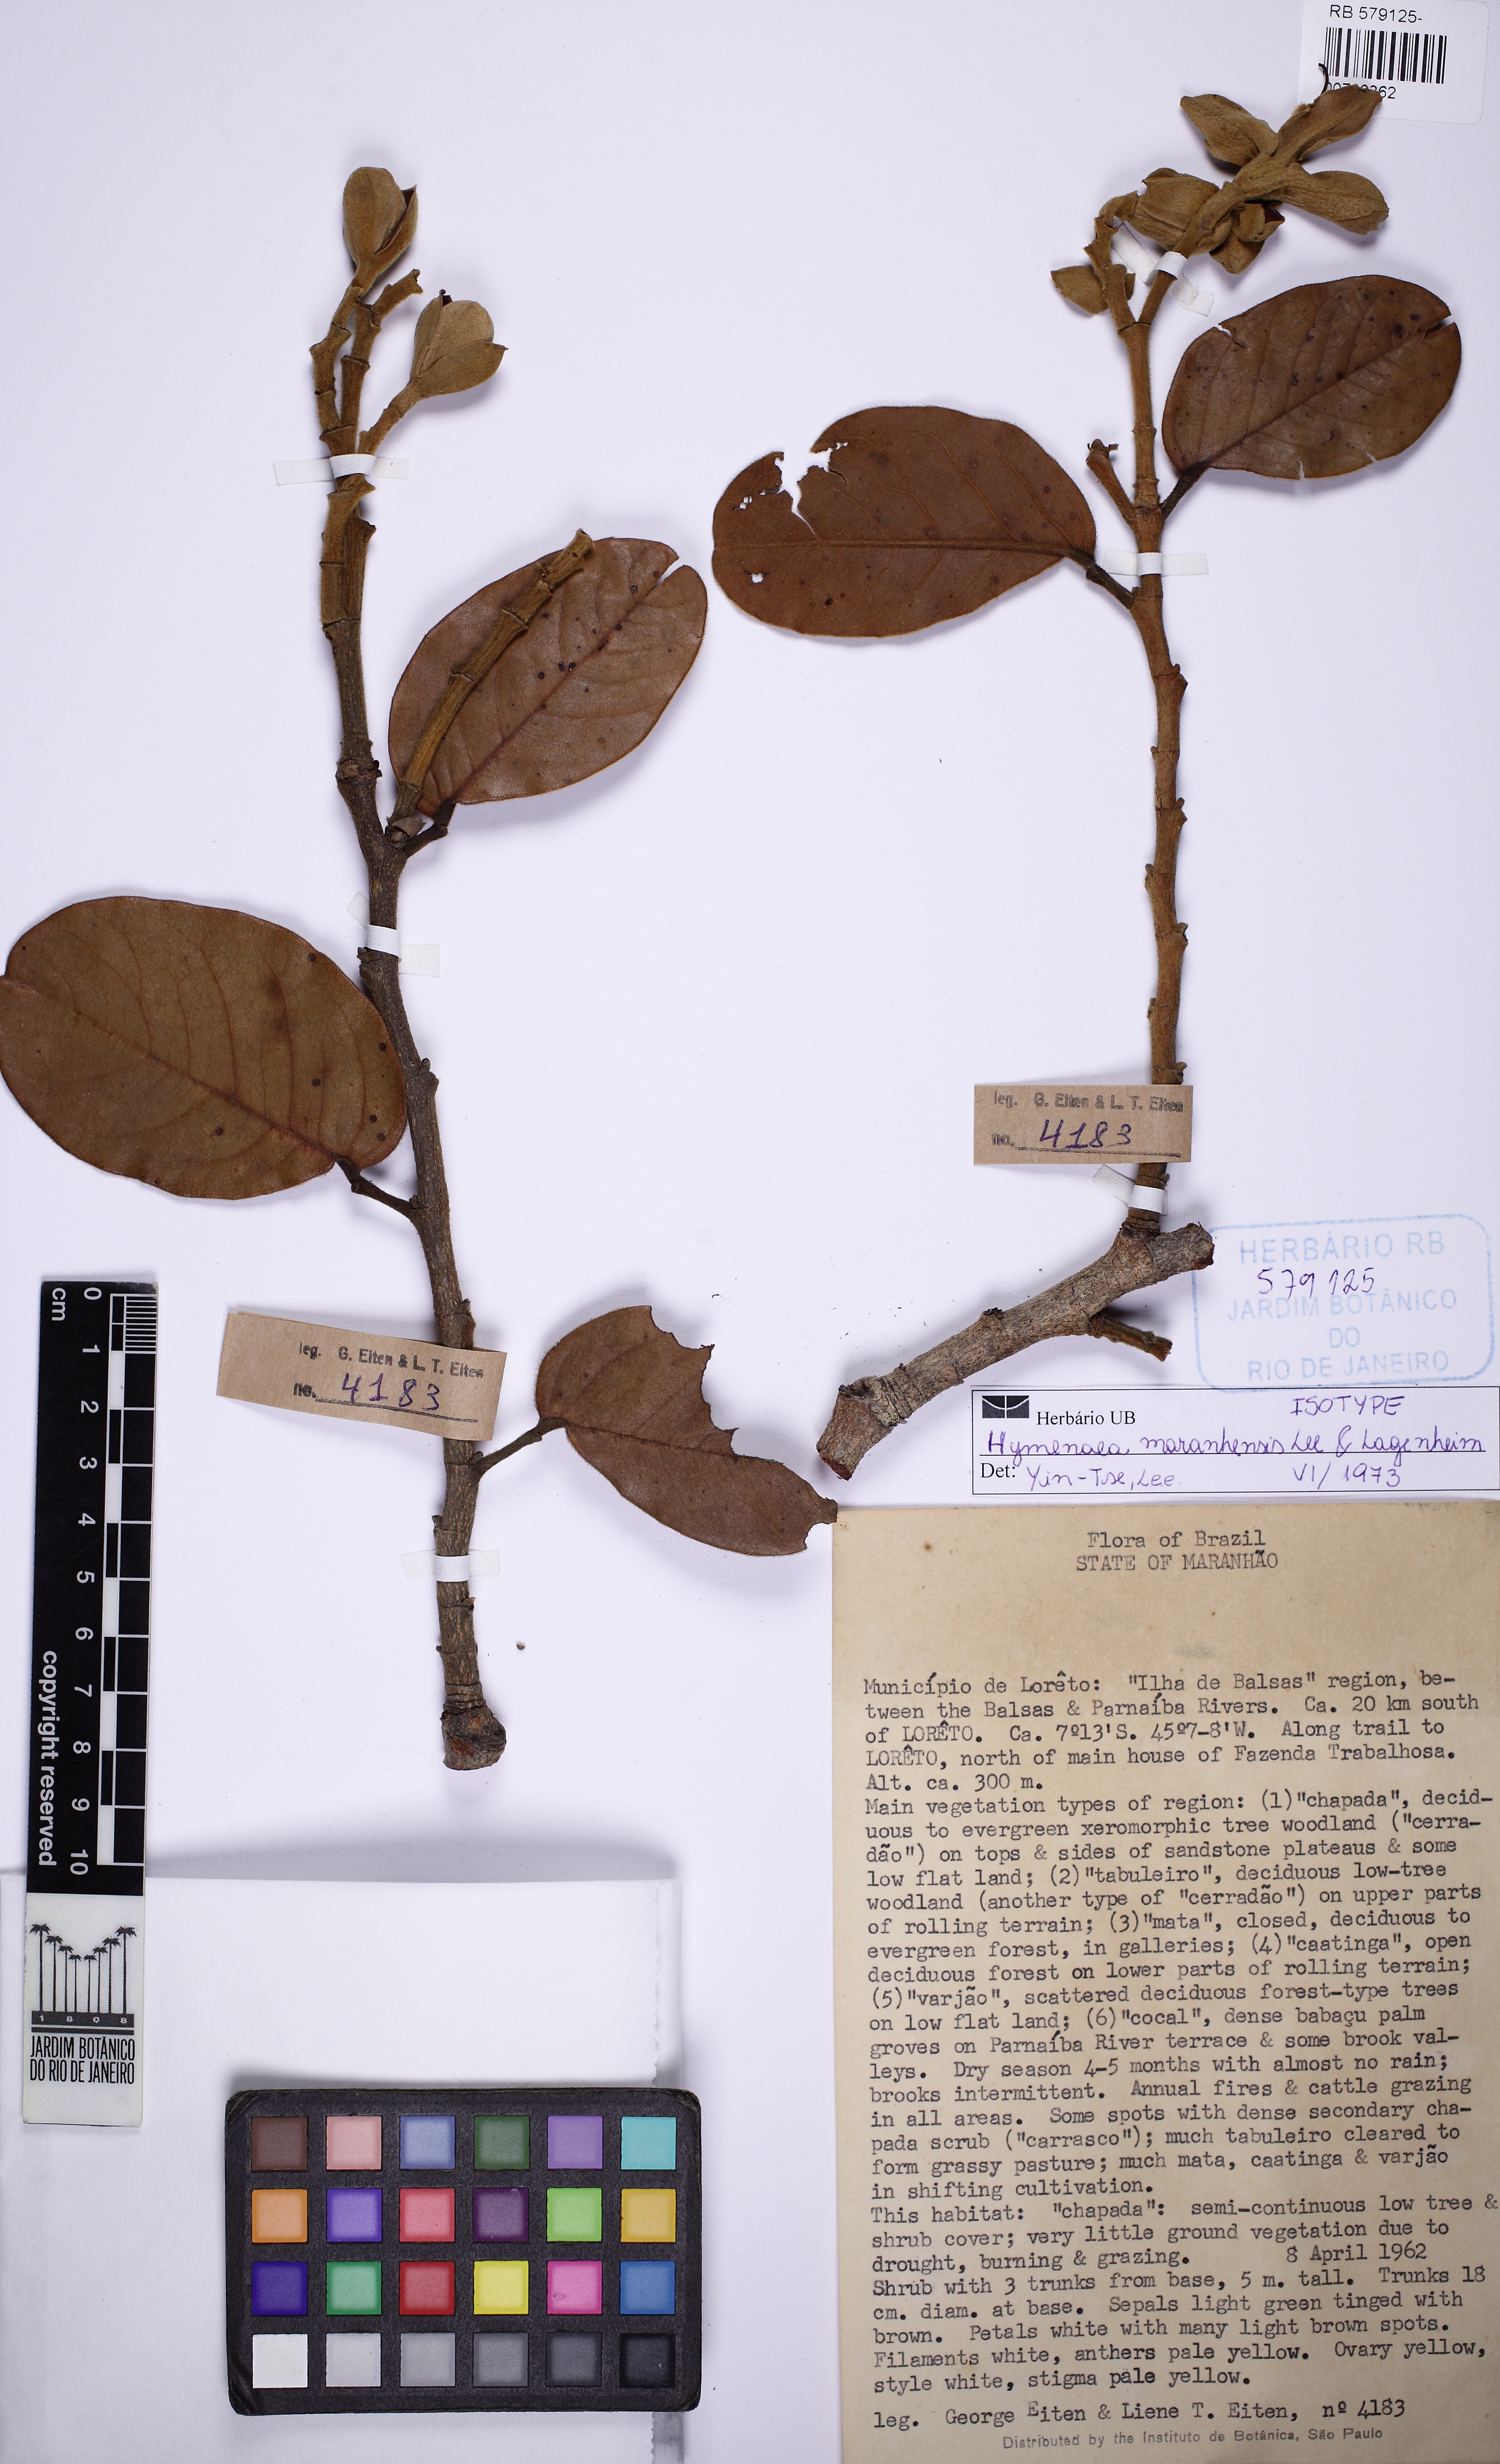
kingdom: Plantae
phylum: Tracheophyta
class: Magnoliopsida
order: Fabales
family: Fabaceae
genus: Hymenaea
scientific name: Hymenaea maranhensis
